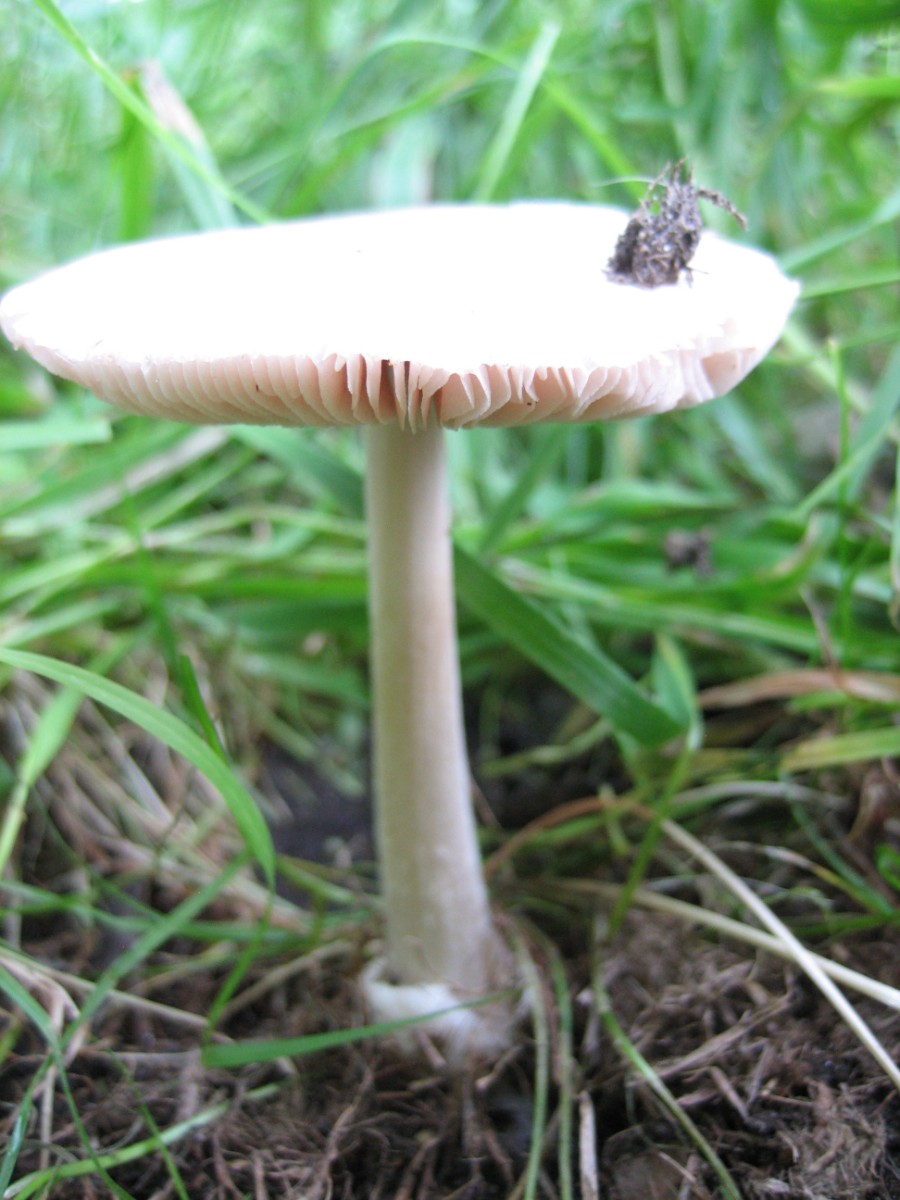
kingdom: Fungi
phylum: Basidiomycota
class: Agaricomycetes
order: Agaricales
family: Pluteaceae
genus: Volvopluteus
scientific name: Volvopluteus gloiocephalus
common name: høj posesvamp
